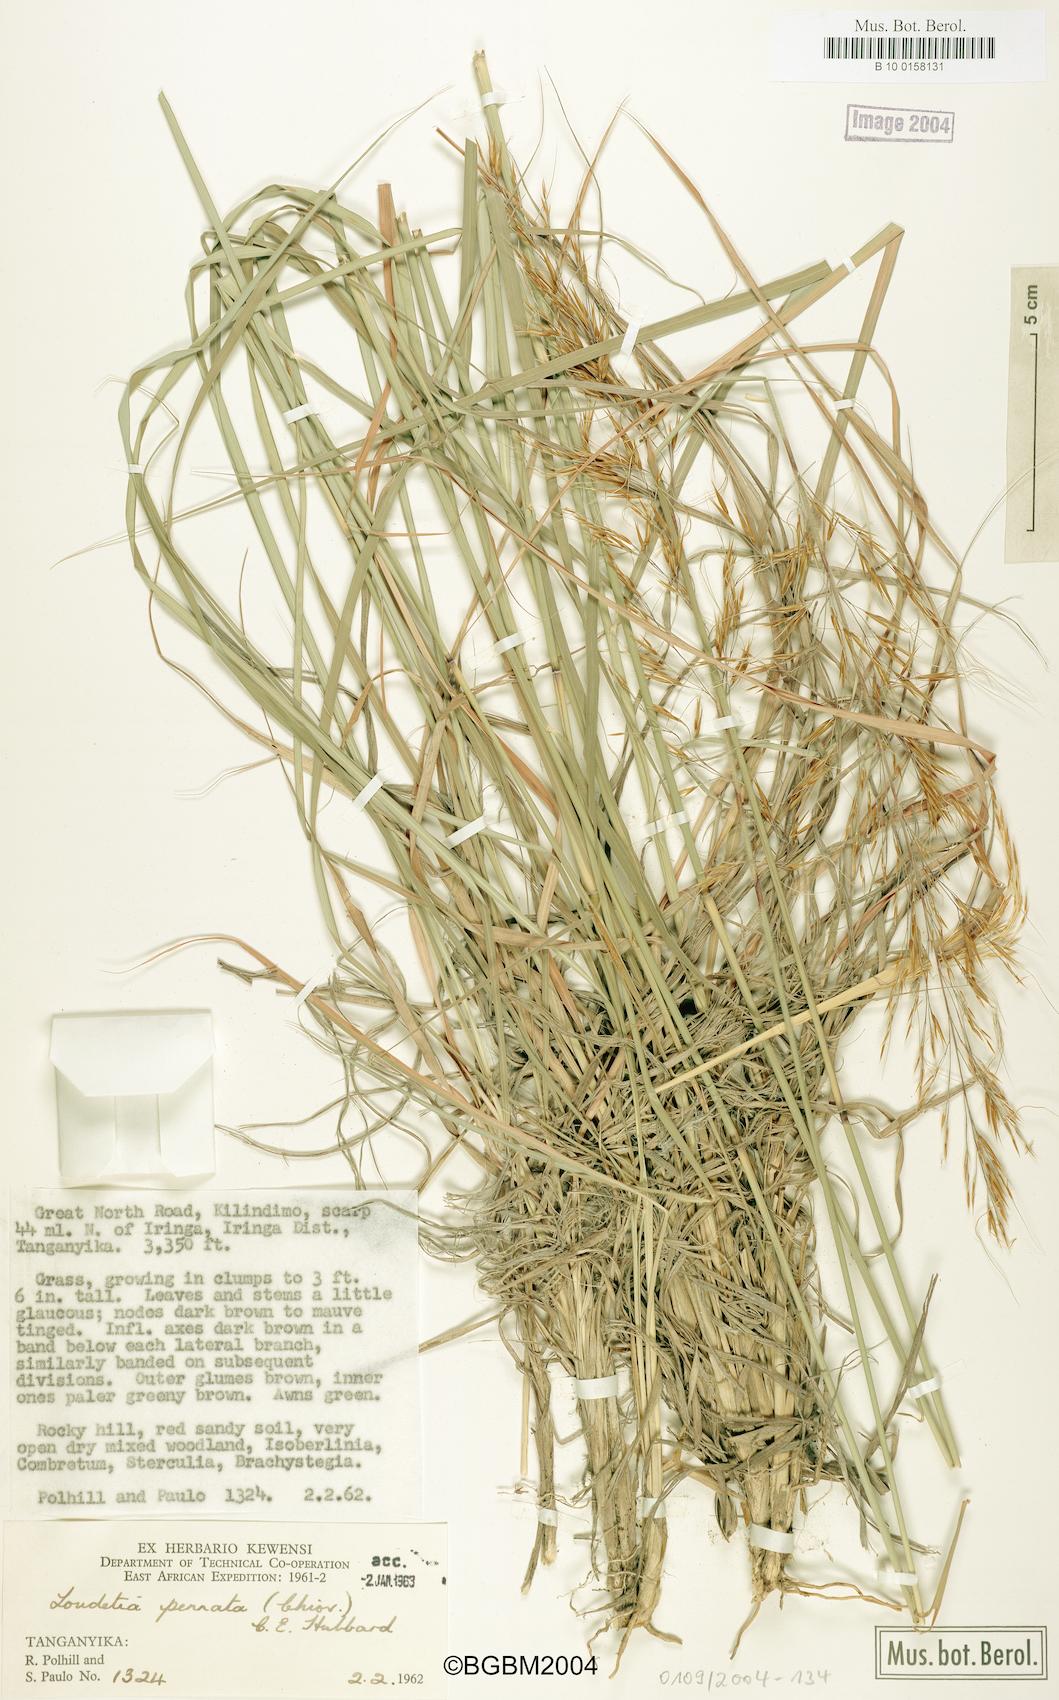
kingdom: Plantae
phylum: Tracheophyta
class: Liliopsida
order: Poales
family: Poaceae
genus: Loudetia
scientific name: Loudetia flavida
